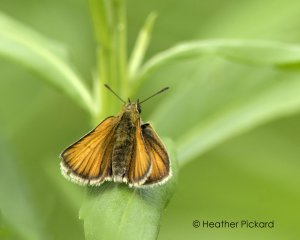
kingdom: Animalia
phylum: Arthropoda
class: Insecta
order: Lepidoptera
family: Hesperiidae
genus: Thymelicus
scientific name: Thymelicus lineola
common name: European Skipper
